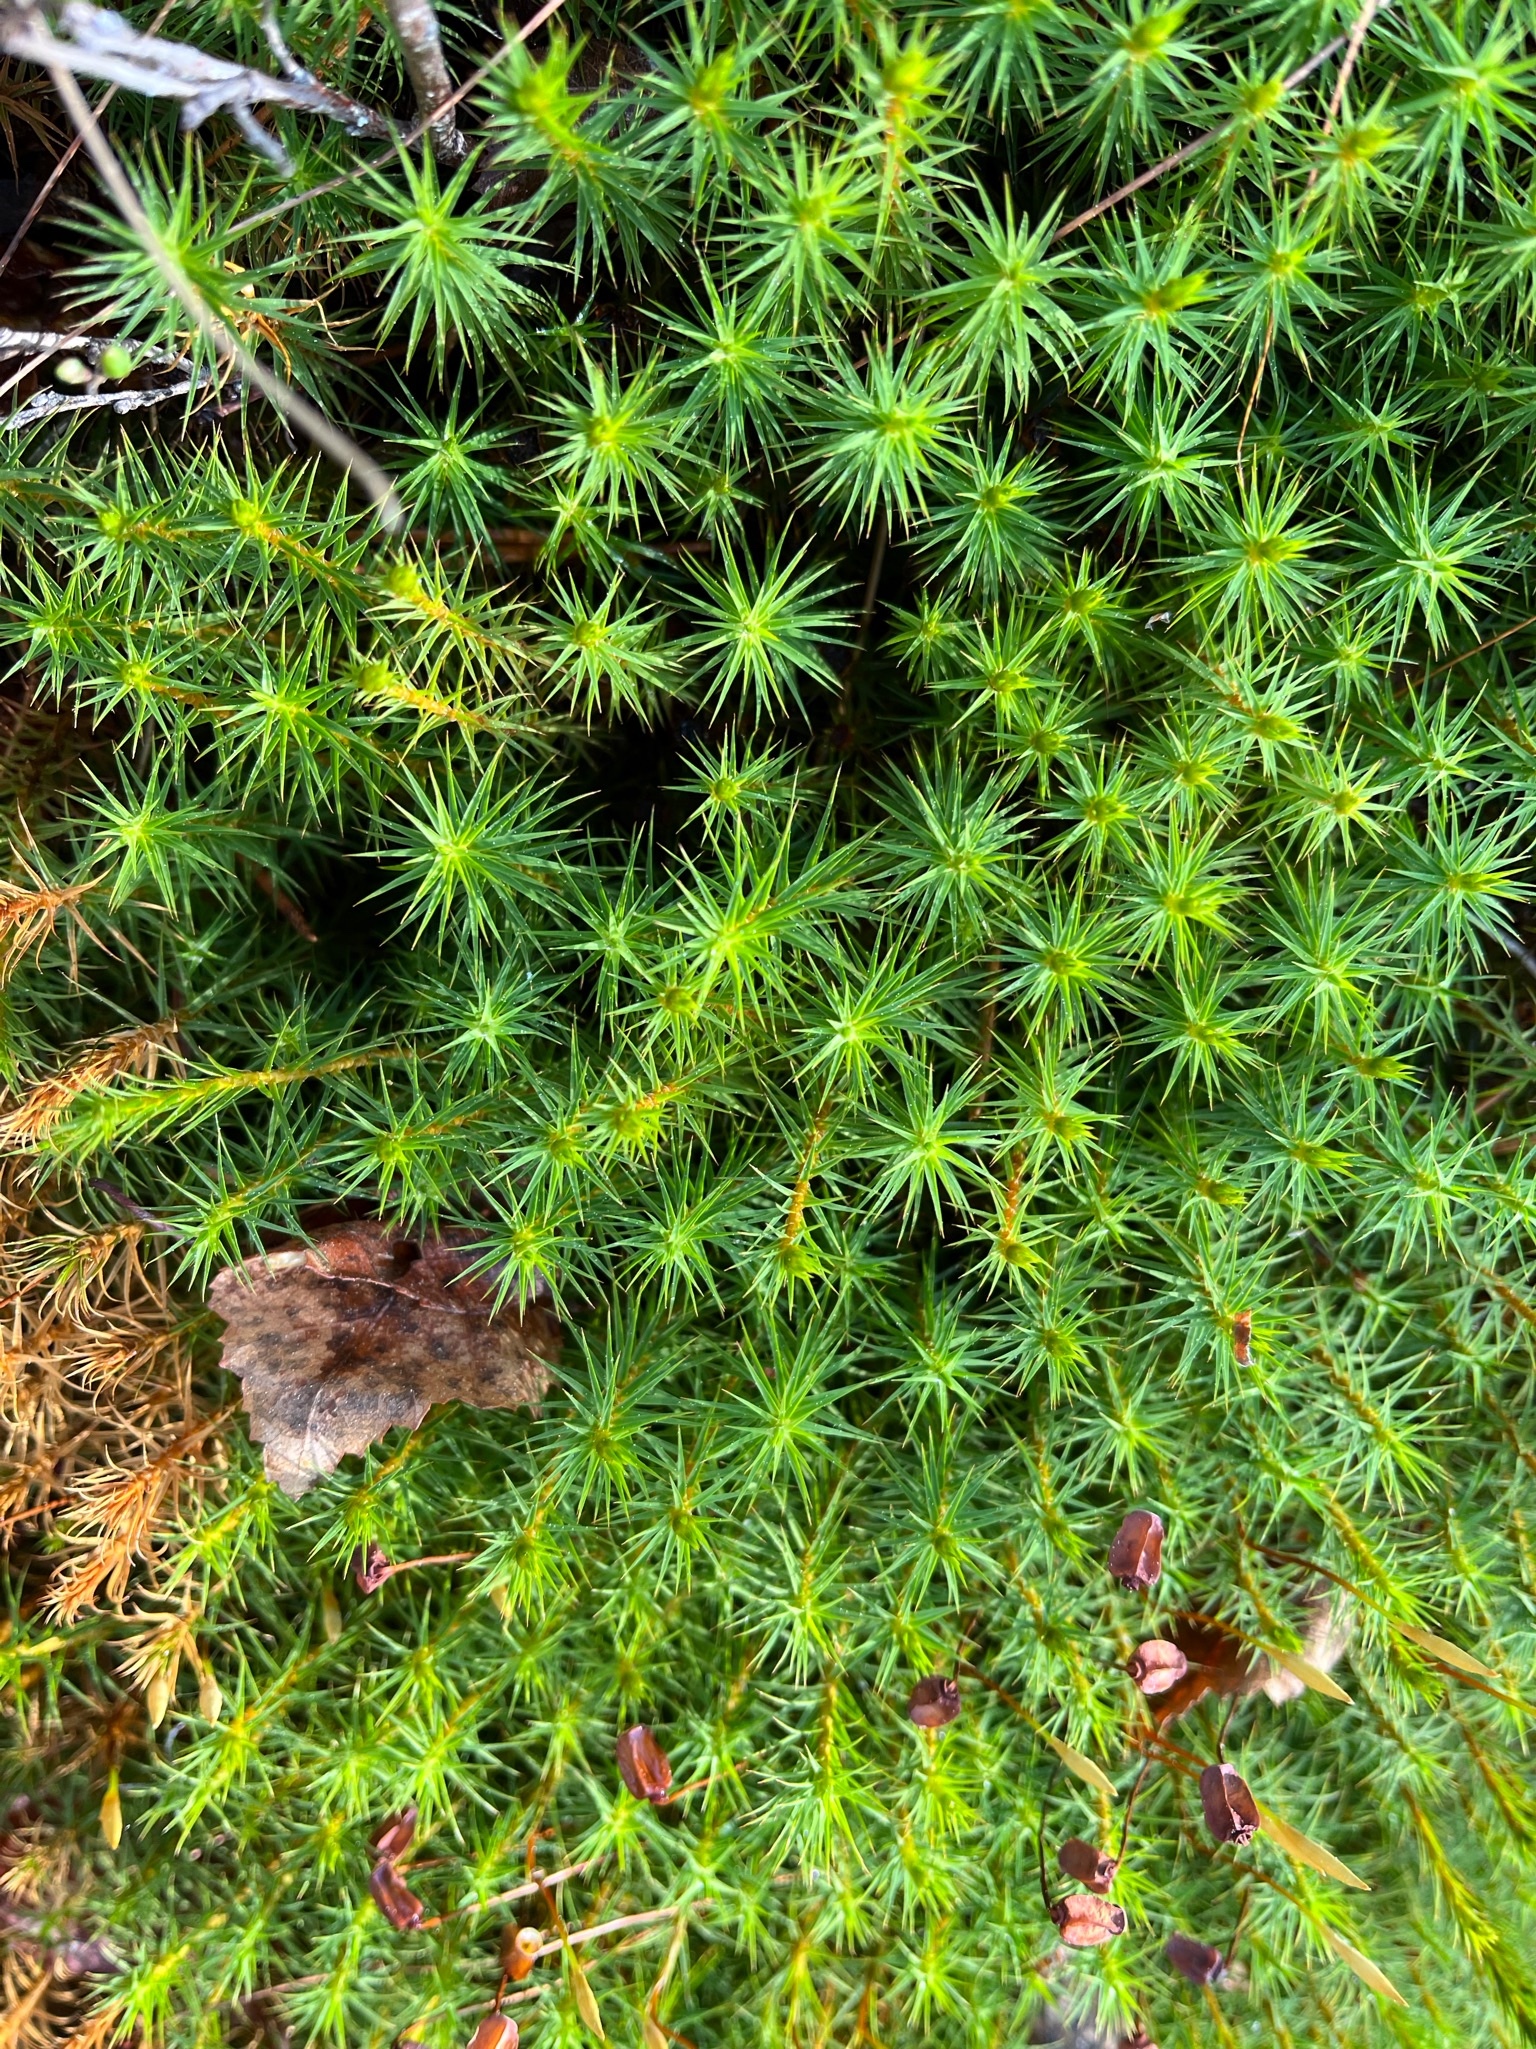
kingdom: Plantae
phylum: Bryophyta
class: Polytrichopsida
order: Polytrichales
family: Polytrichaceae
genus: Polytrichum
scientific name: Polytrichum commune
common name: Common haircap
